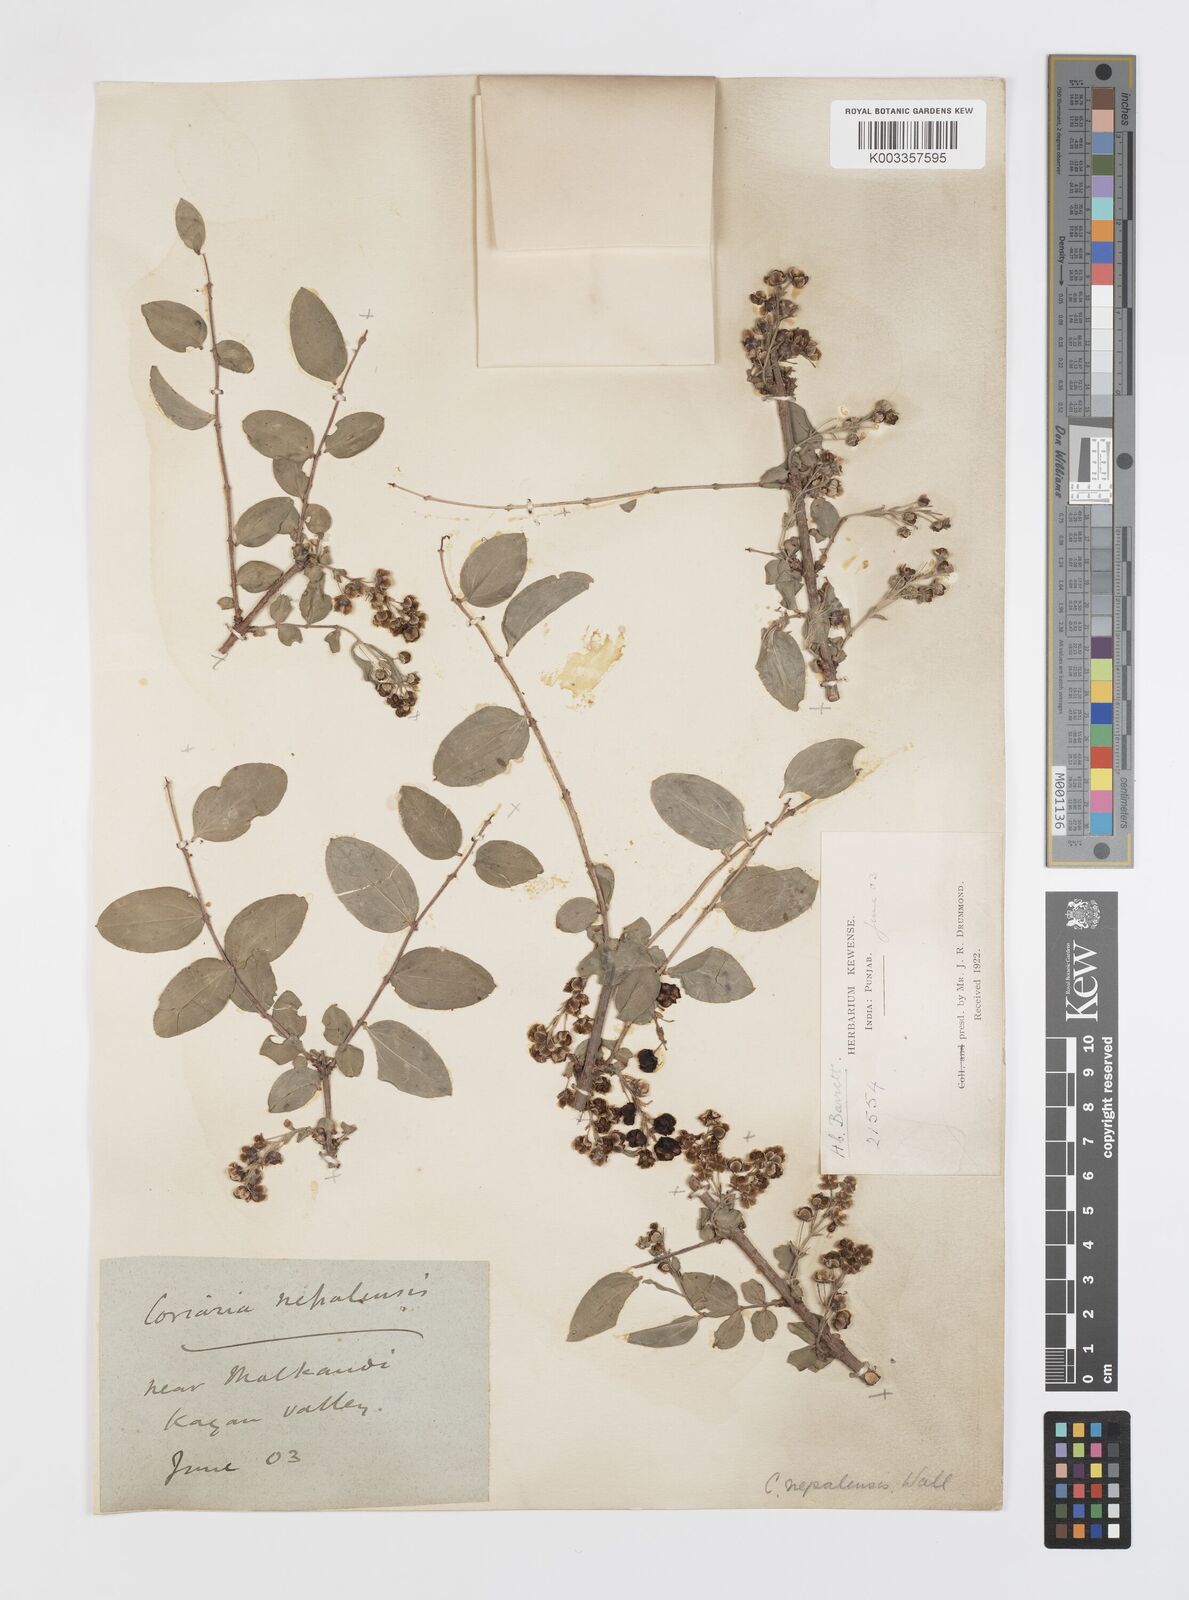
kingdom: Plantae
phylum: Tracheophyta
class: Magnoliopsida
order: Cucurbitales
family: Coriariaceae
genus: Coriaria
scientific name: Coriaria napalensis
